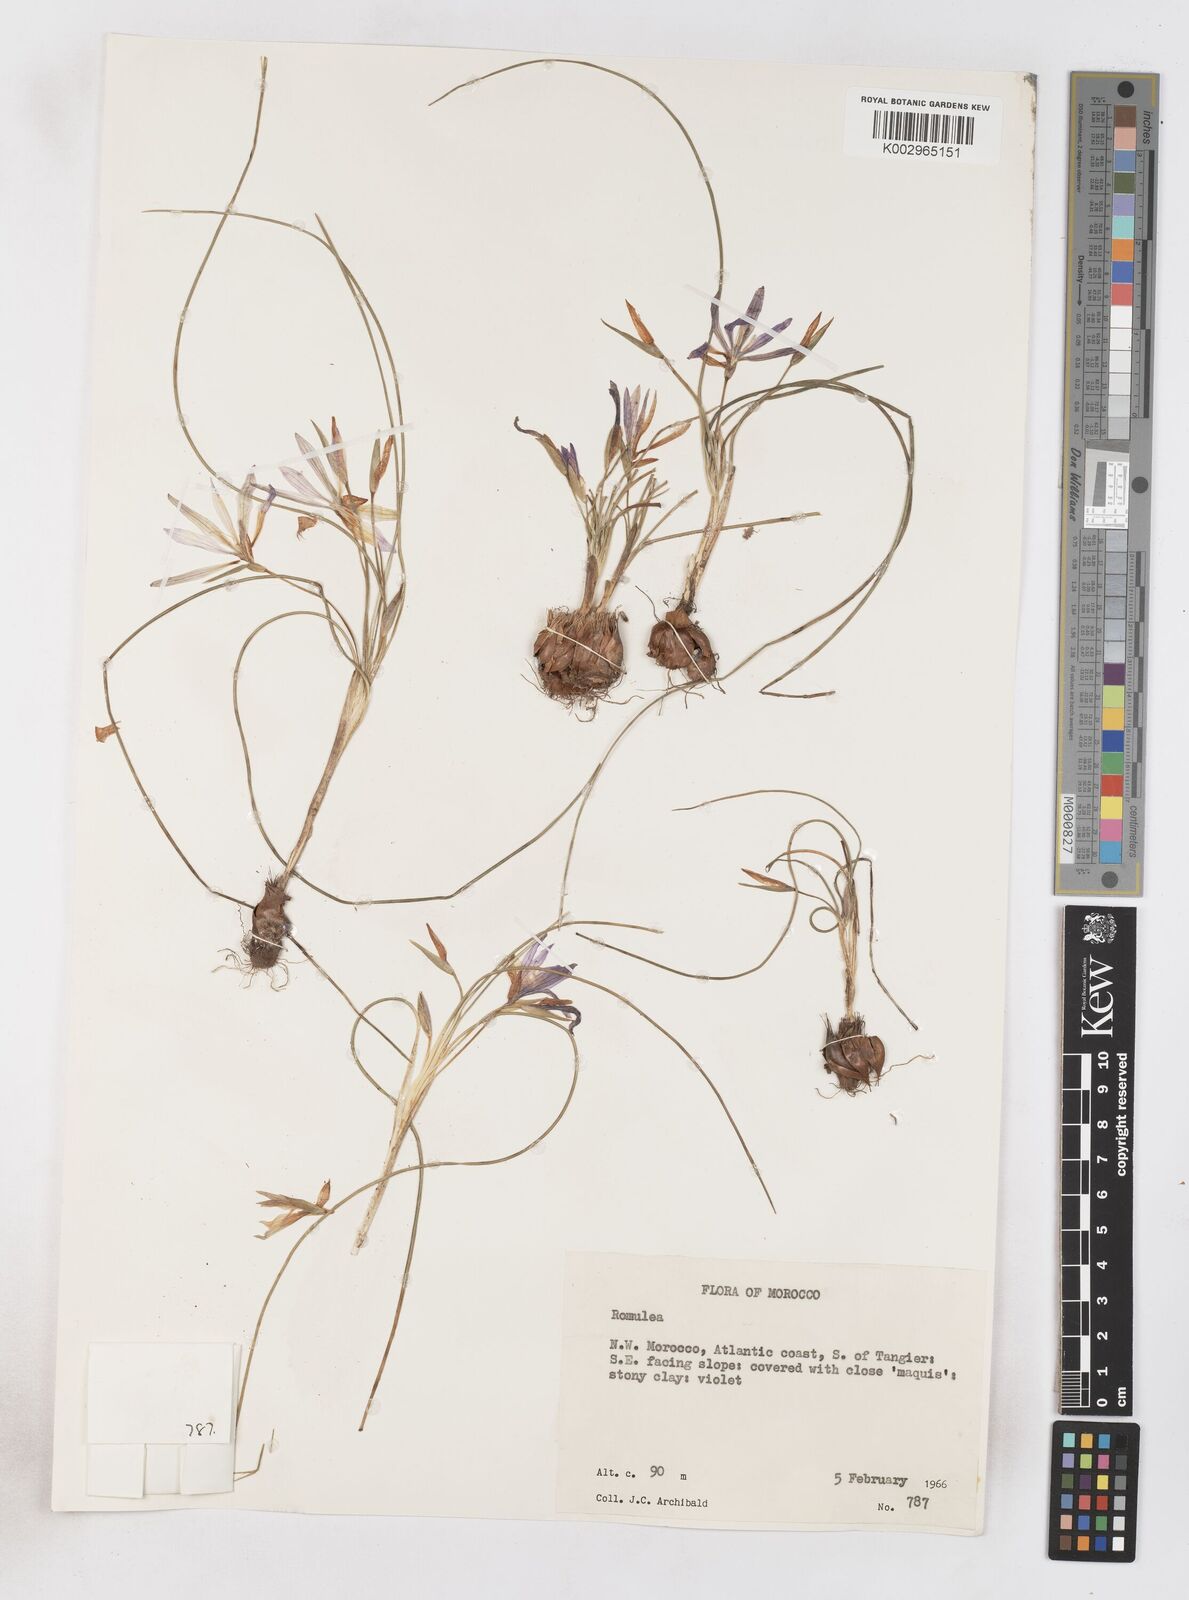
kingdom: Plantae
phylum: Tracheophyta
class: Liliopsida
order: Asparagales
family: Iridaceae
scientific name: Iridaceae
